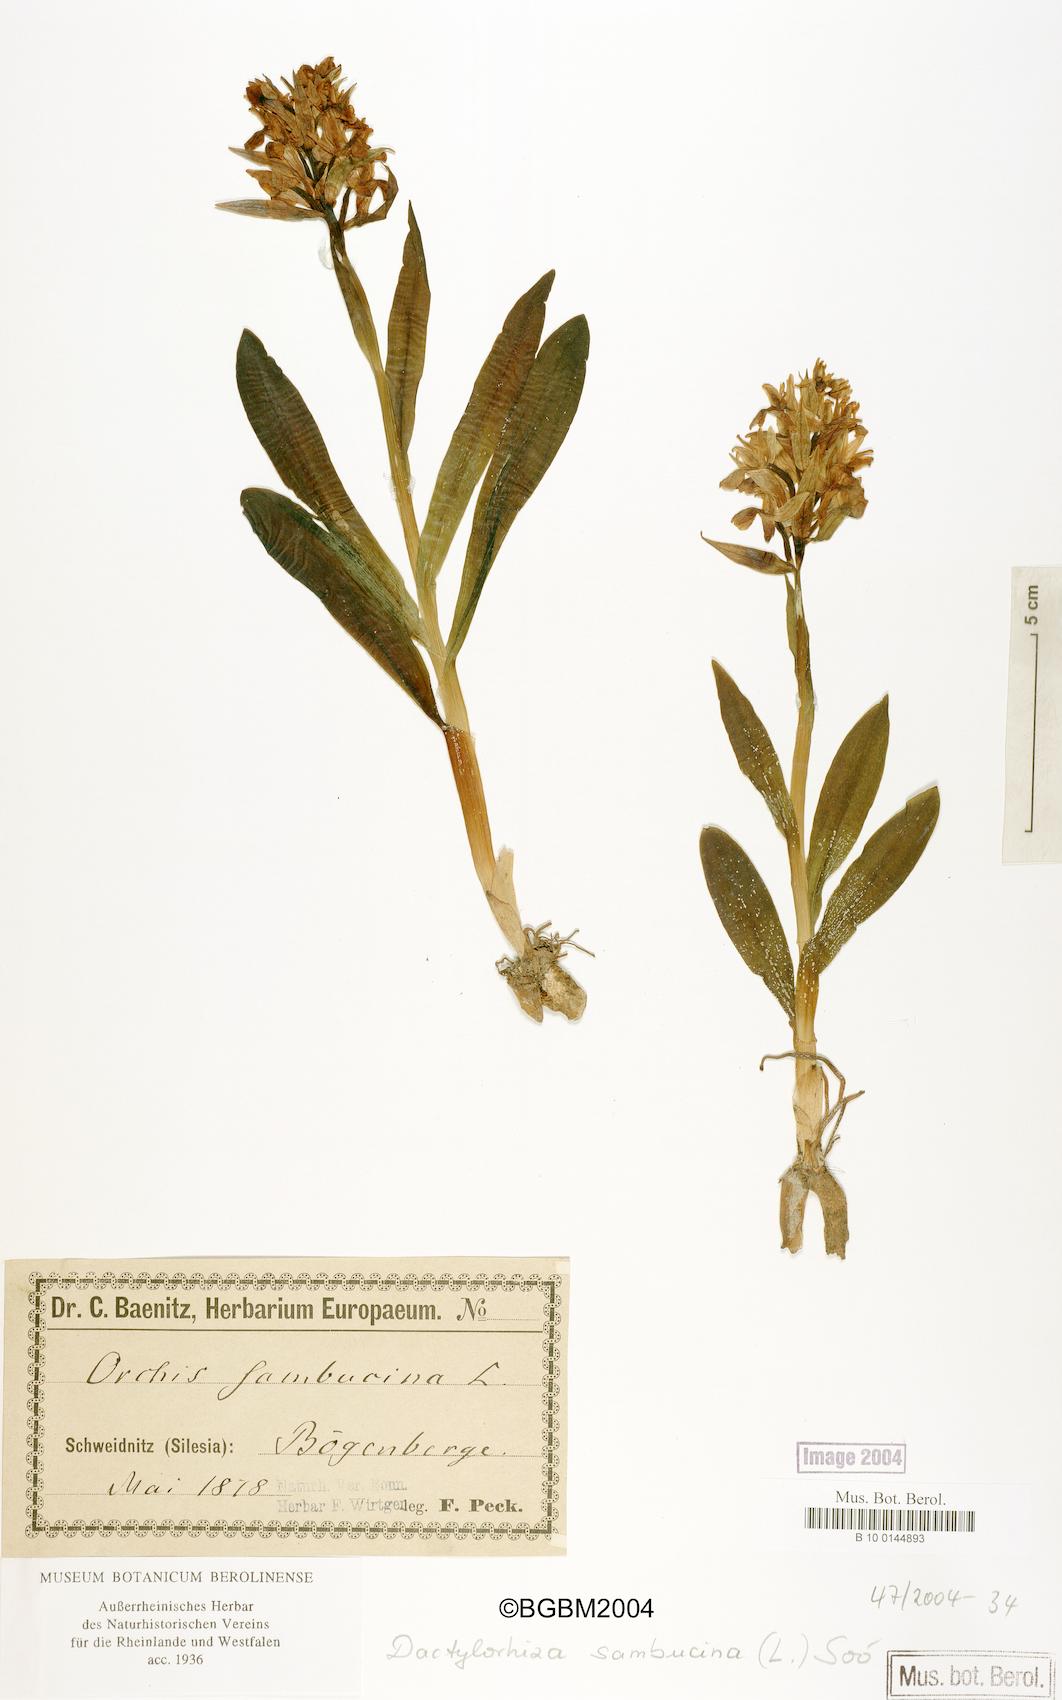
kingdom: Plantae
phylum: Tracheophyta
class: Liliopsida
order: Asparagales
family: Orchidaceae
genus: Dactylorhiza
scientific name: Dactylorhiza sambucina
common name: Elder-flowered orchid
